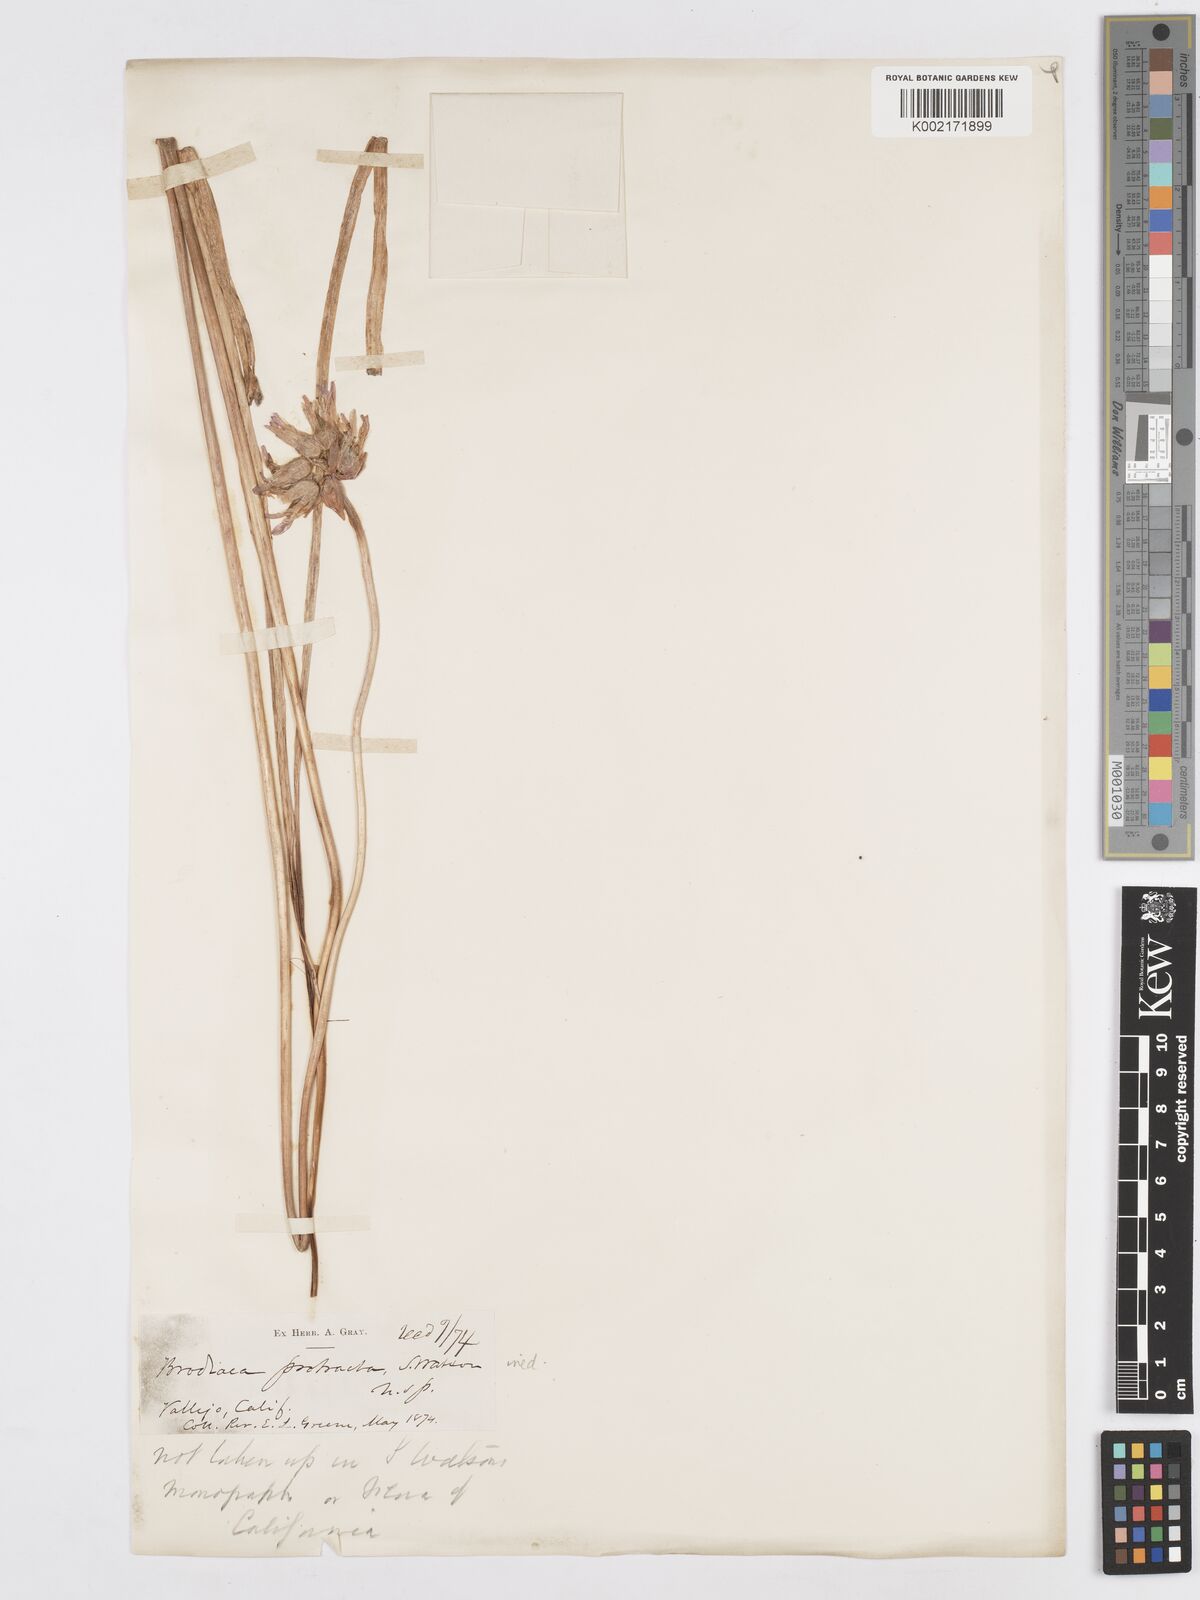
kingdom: Plantae
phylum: Tracheophyta
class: Liliopsida
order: Asparagales
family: Asparagaceae
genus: Dichelostemma
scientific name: Dichelostemma volubile
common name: Trining brodiaea
